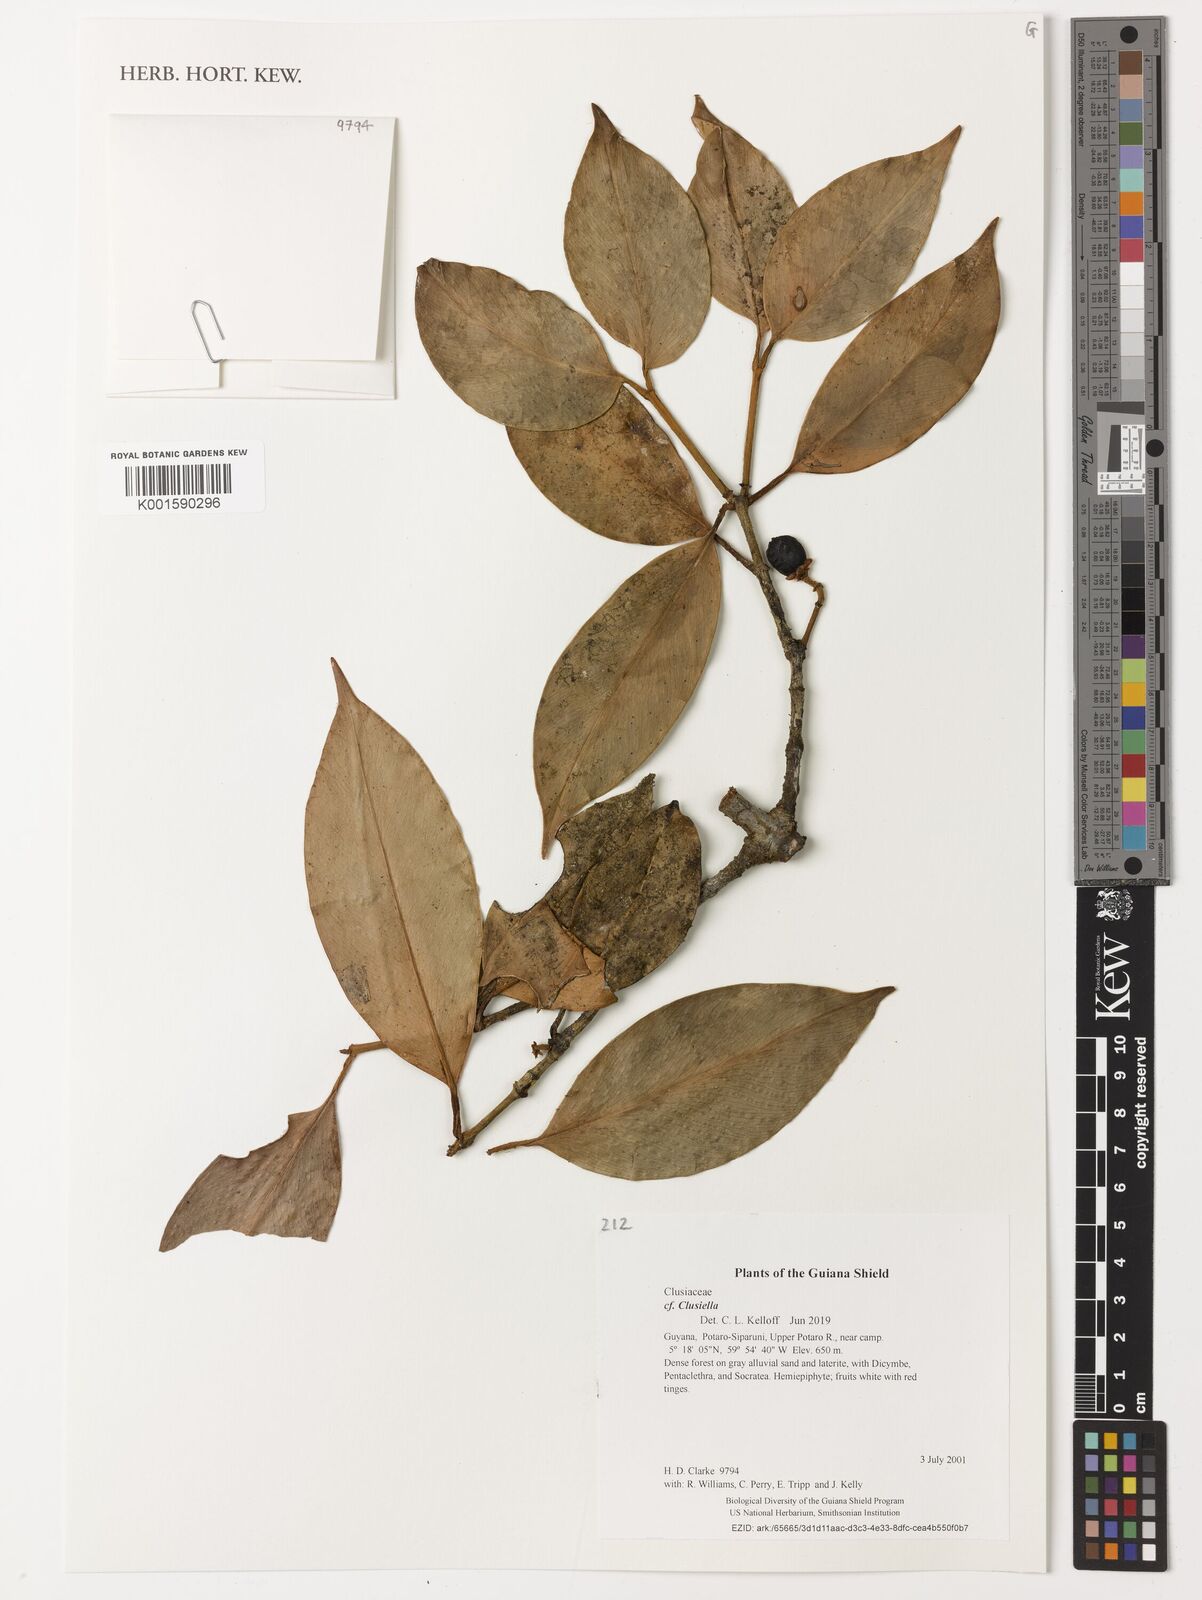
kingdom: Plantae
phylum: Tracheophyta
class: Magnoliopsida
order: Malpighiales
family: Calophyllaceae
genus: Clusiella
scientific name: Clusiella
